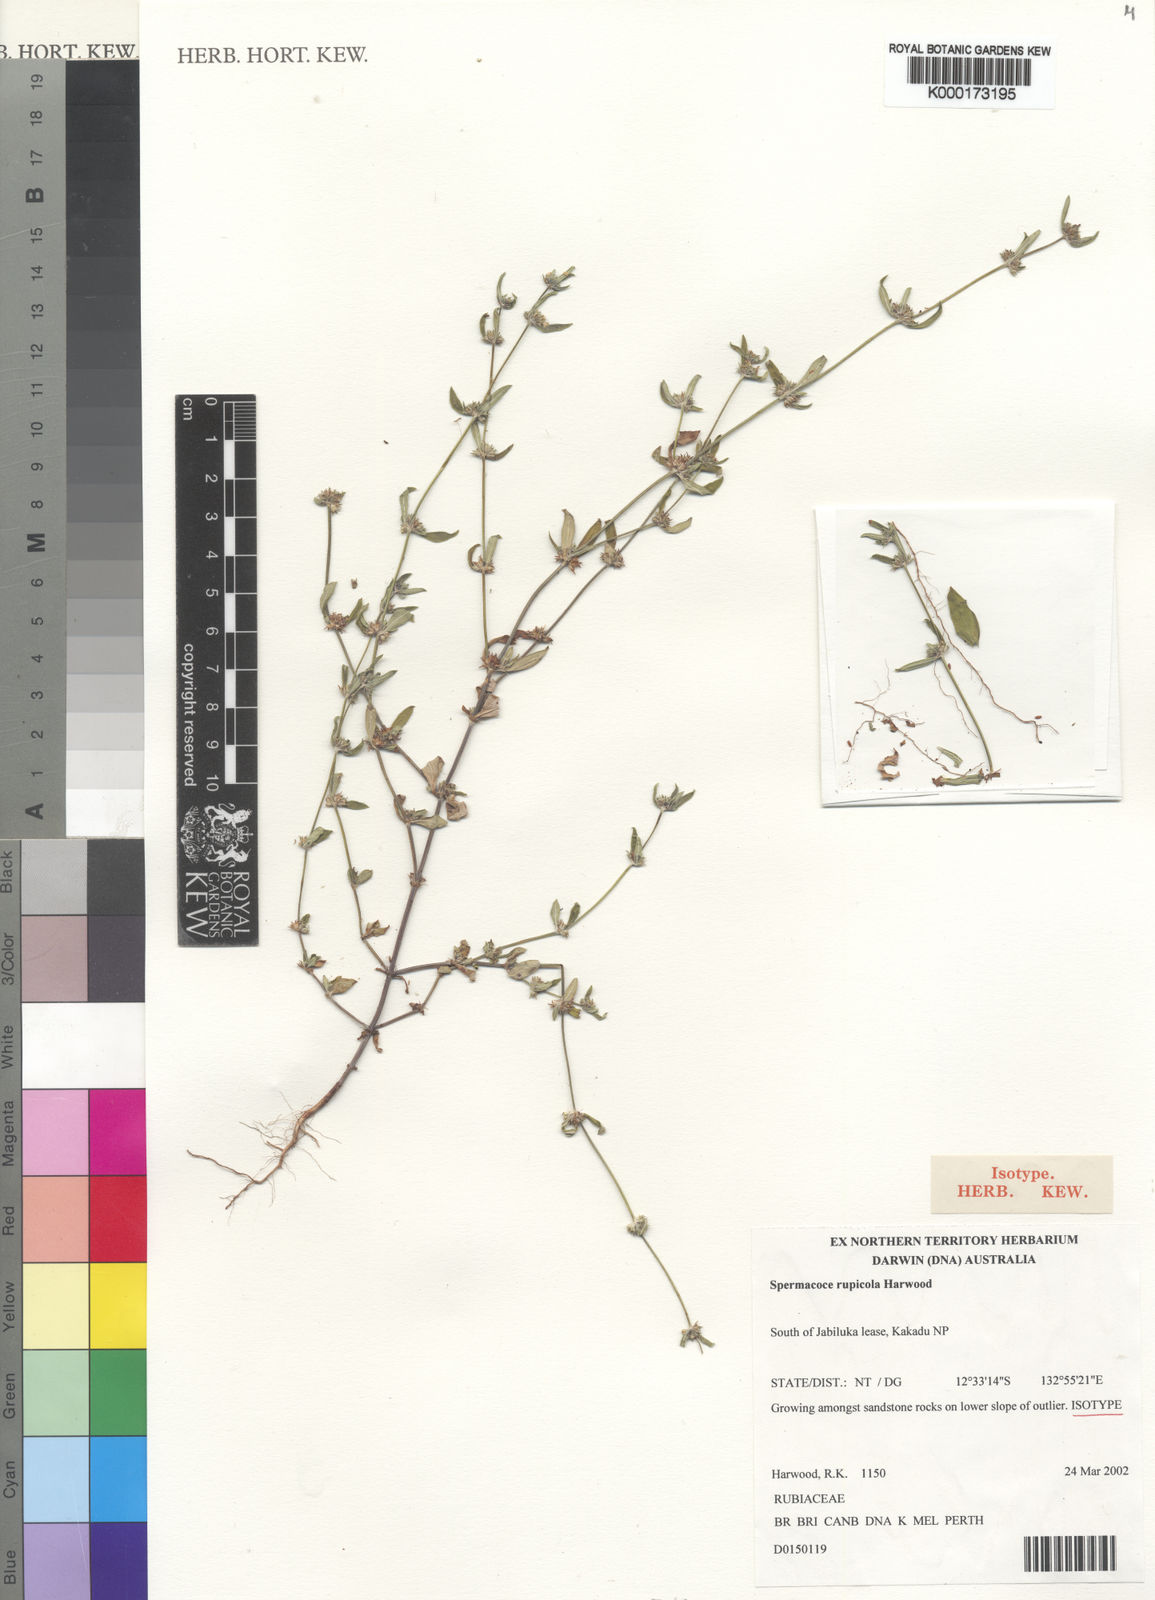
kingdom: Plantae
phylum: Tracheophyta
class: Magnoliopsida
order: Gentianales
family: Rubiaceae
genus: Spermacoce
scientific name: Spermacoce rupicola
